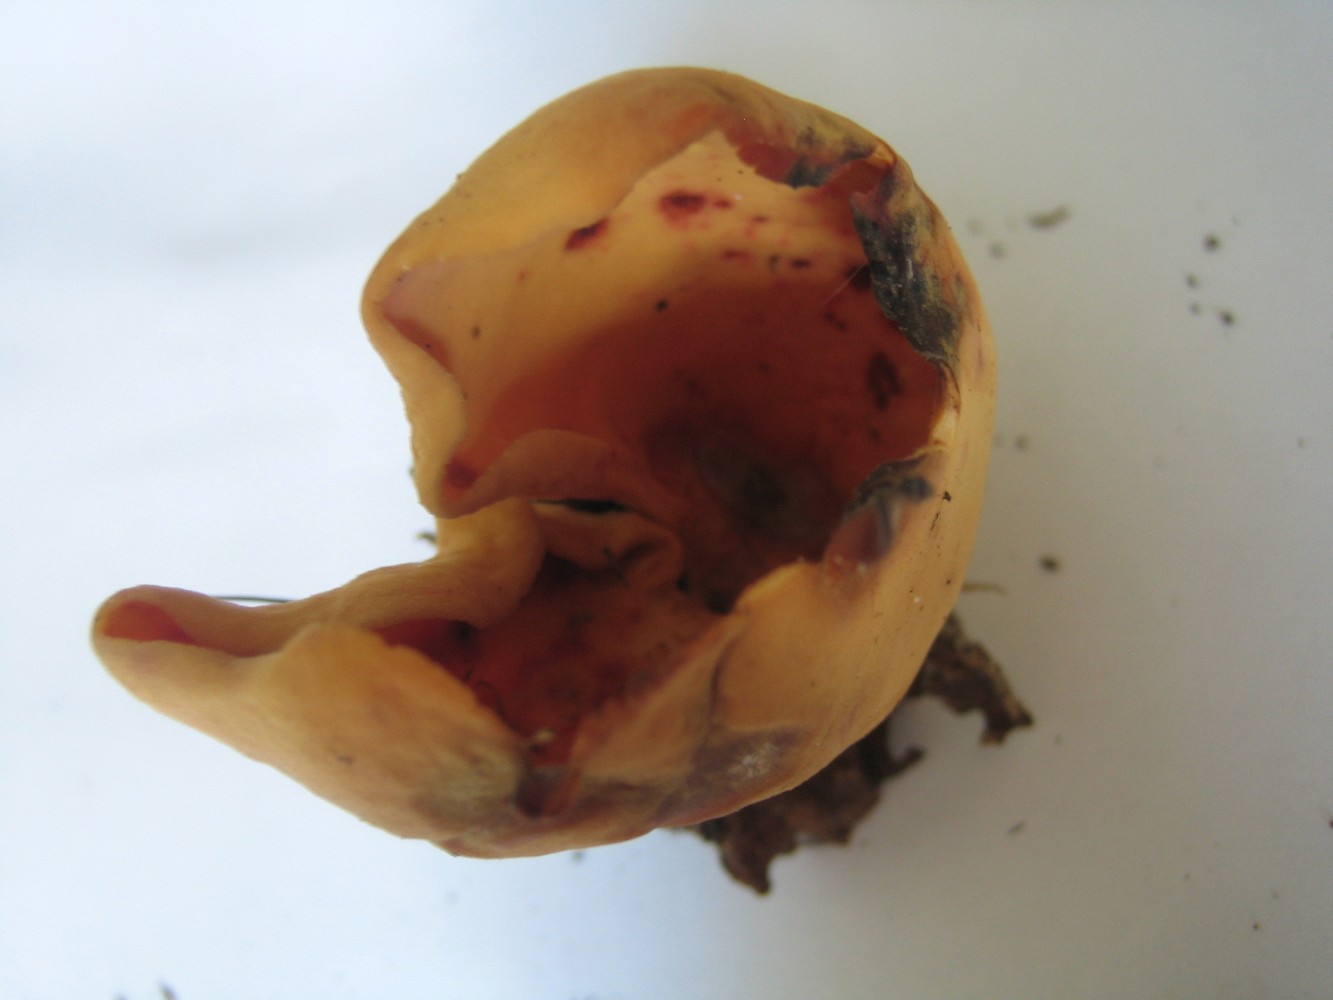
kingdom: Fungi
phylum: Ascomycota
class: Pezizomycetes
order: Pezizales
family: Otideaceae
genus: Otidea
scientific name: Otidea onotica
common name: æsel-ørebæger
